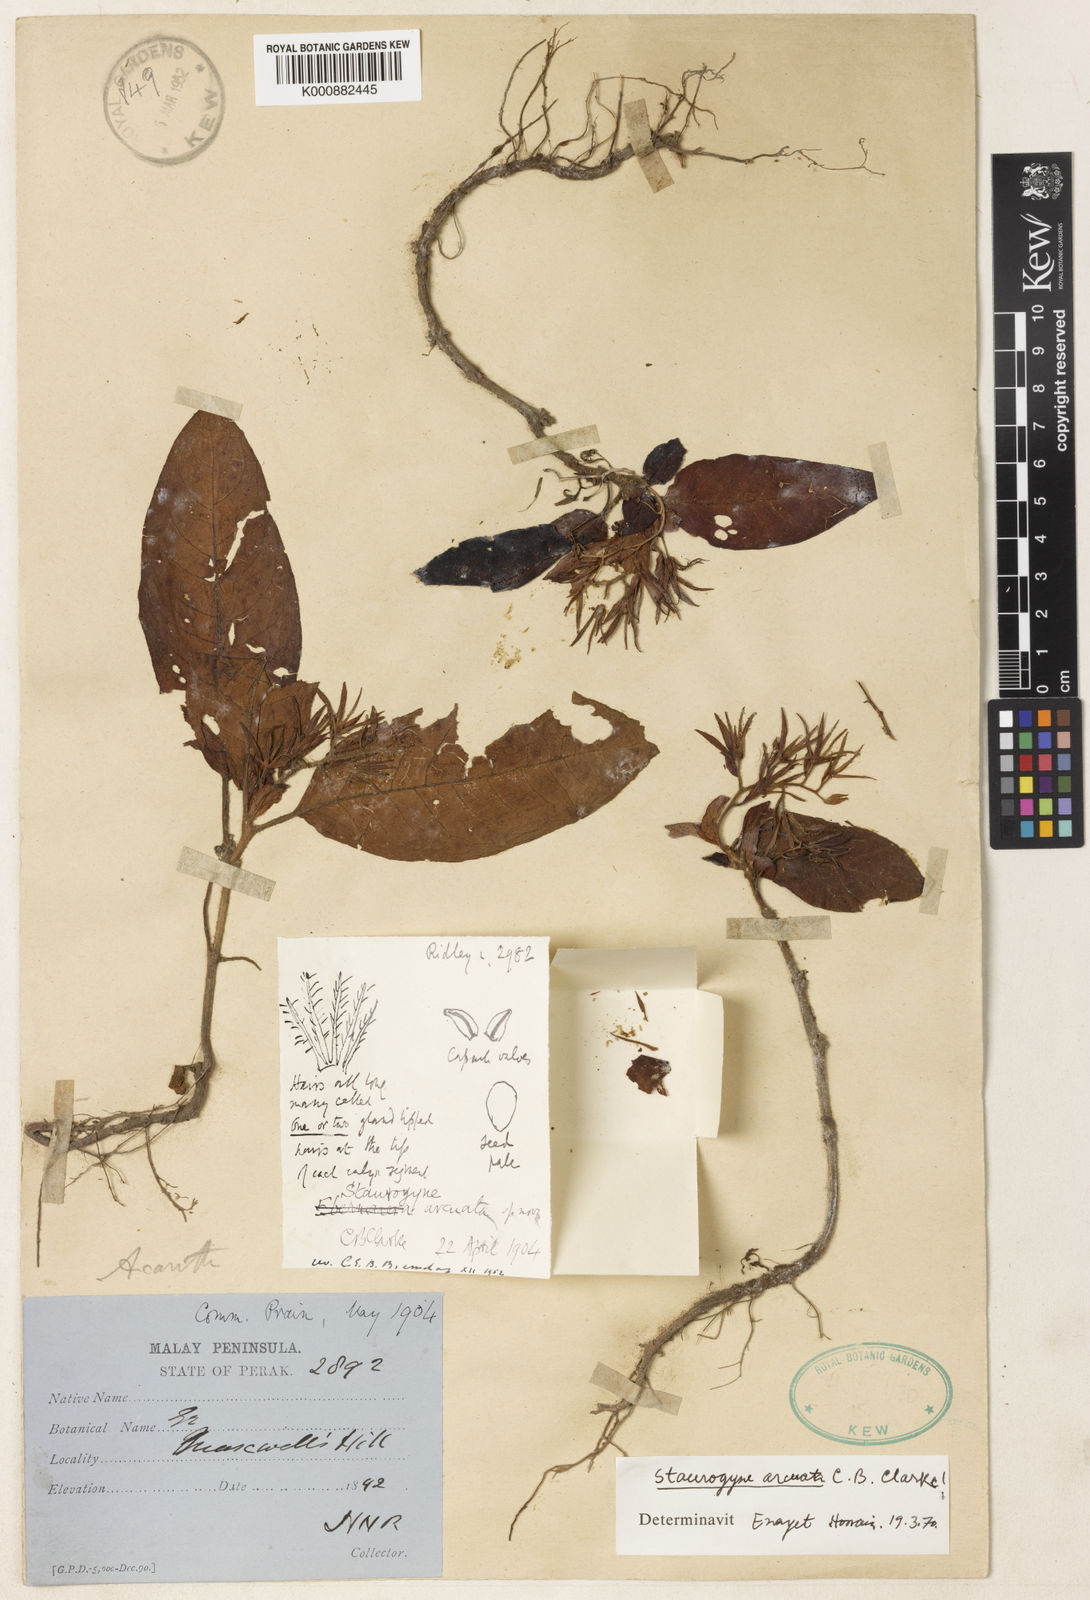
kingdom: Plantae
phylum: Tracheophyta
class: Magnoliopsida
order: Lamiales
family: Acanthaceae
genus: Staurogyne
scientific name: Staurogyne arcuata
